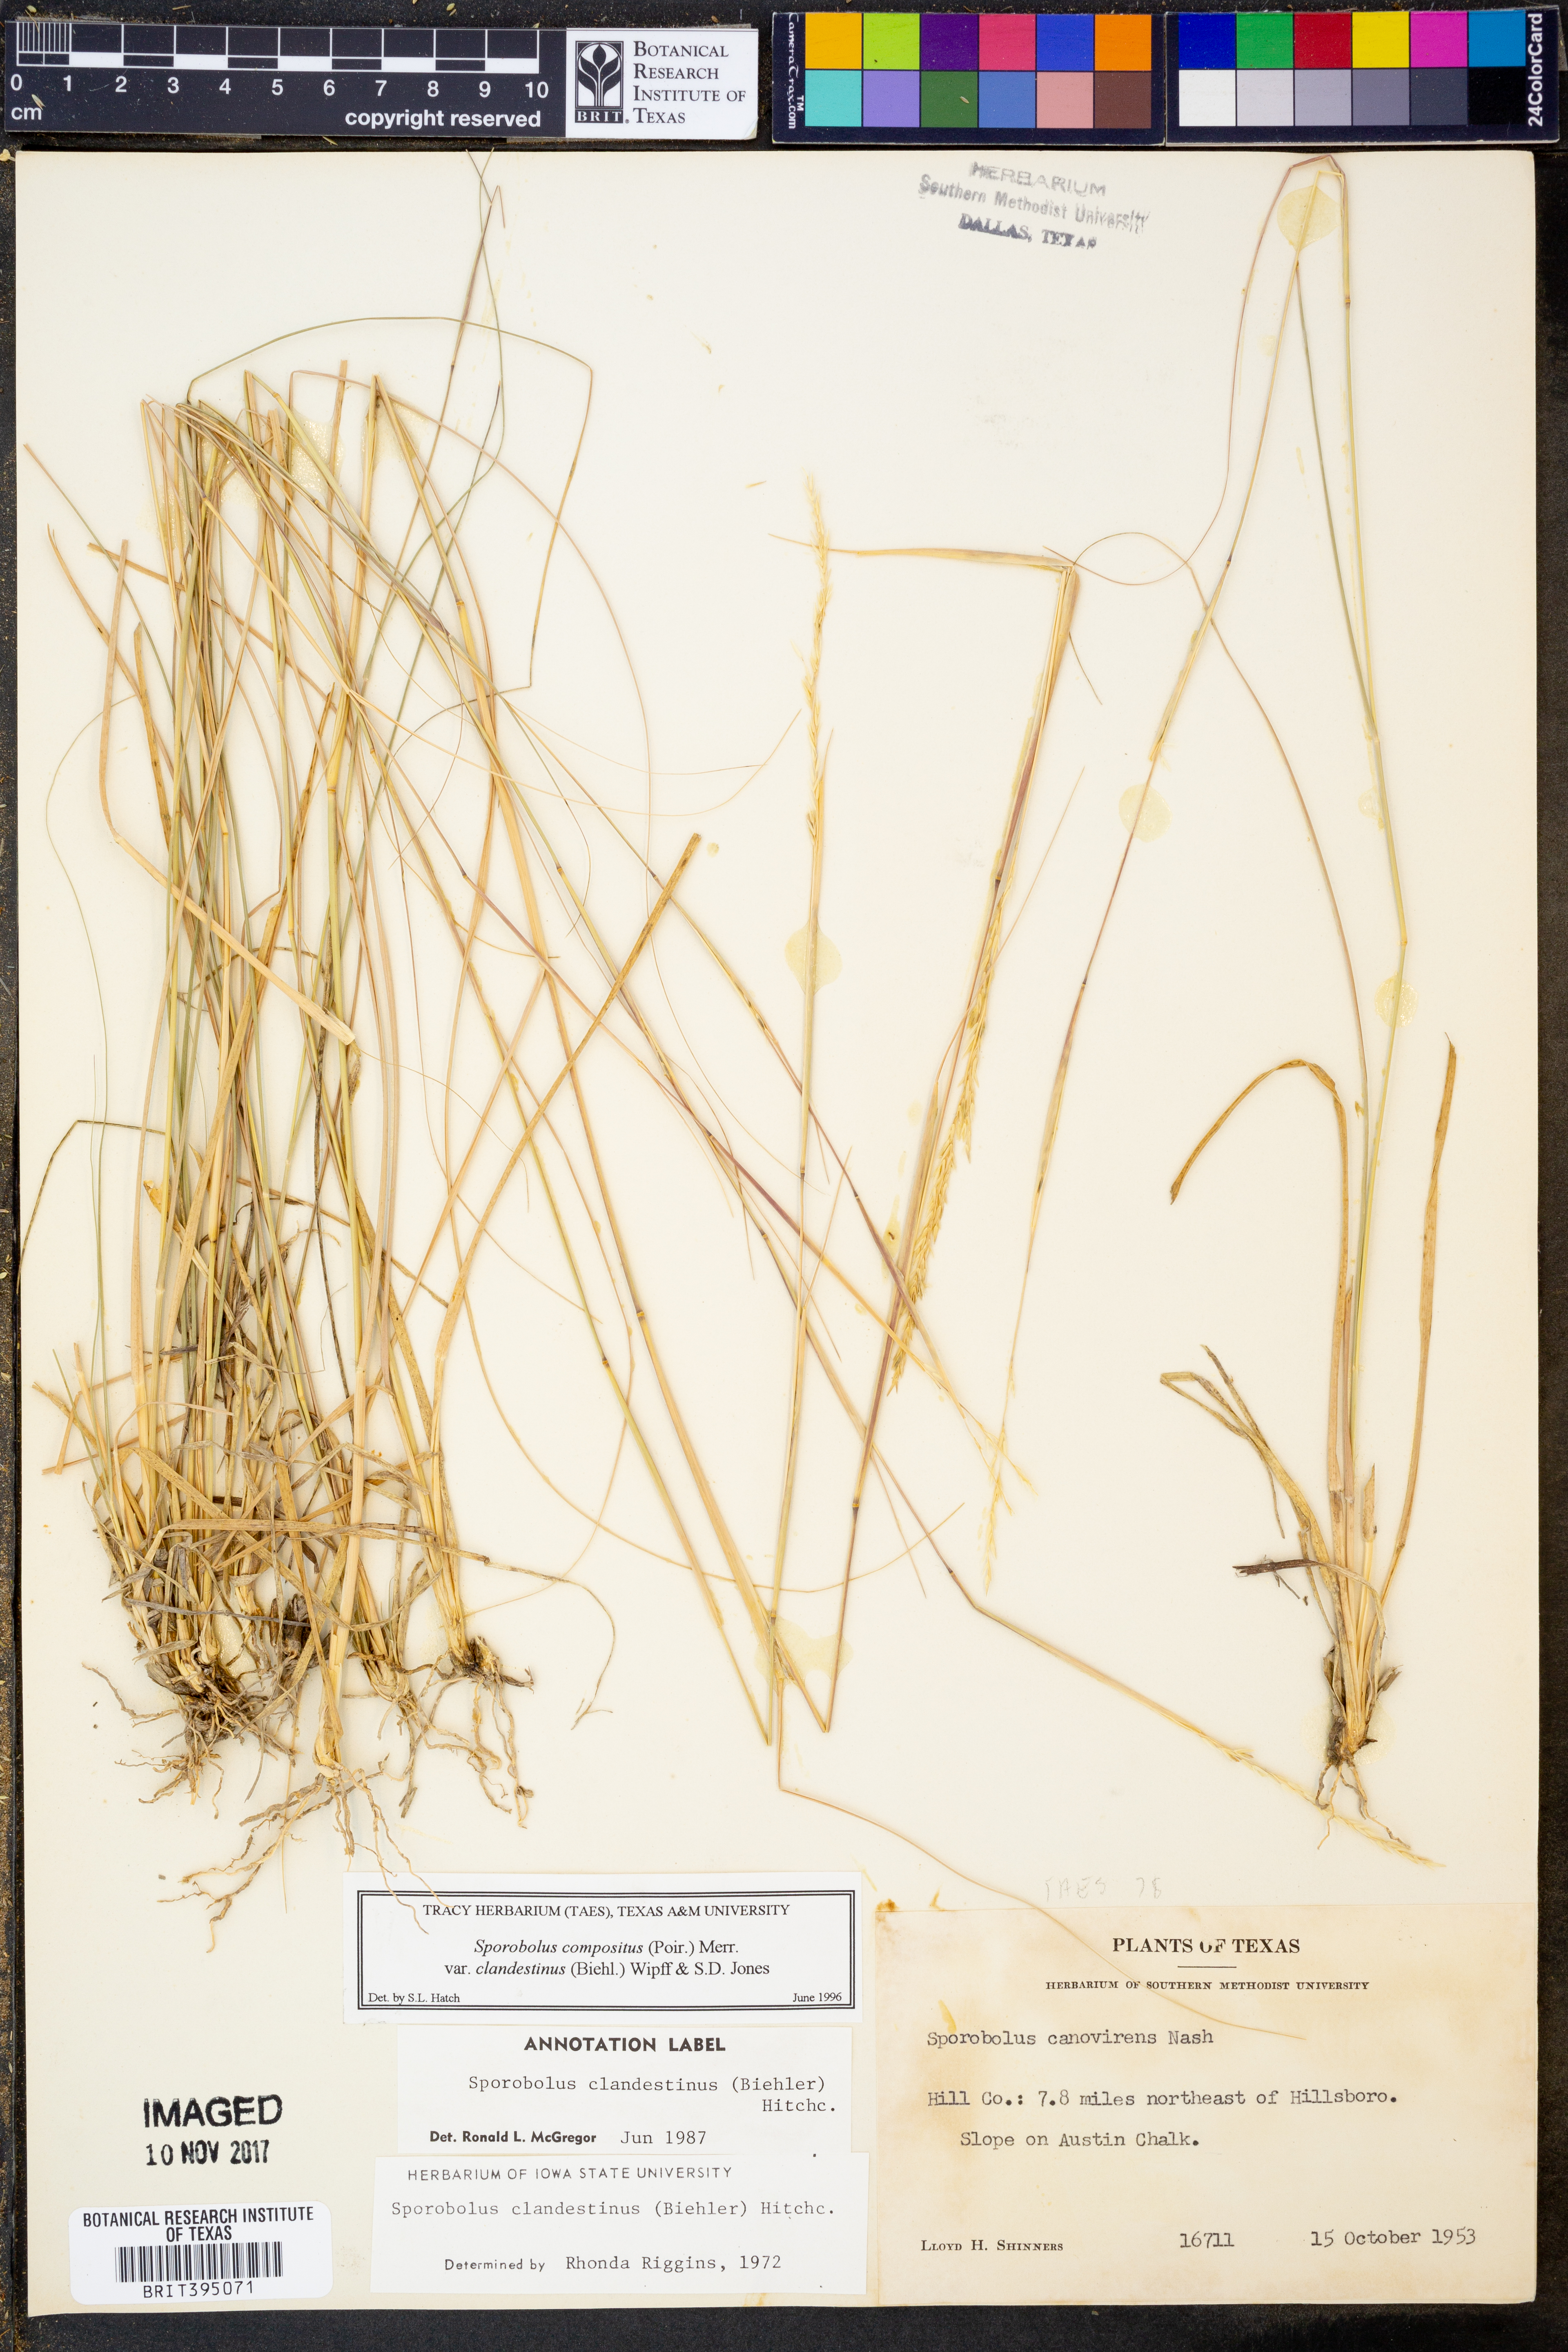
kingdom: Plantae
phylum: Tracheophyta
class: Liliopsida
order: Poales
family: Poaceae
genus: Sporobolus
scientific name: Sporobolus clandestinus
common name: Hidden dropseed
